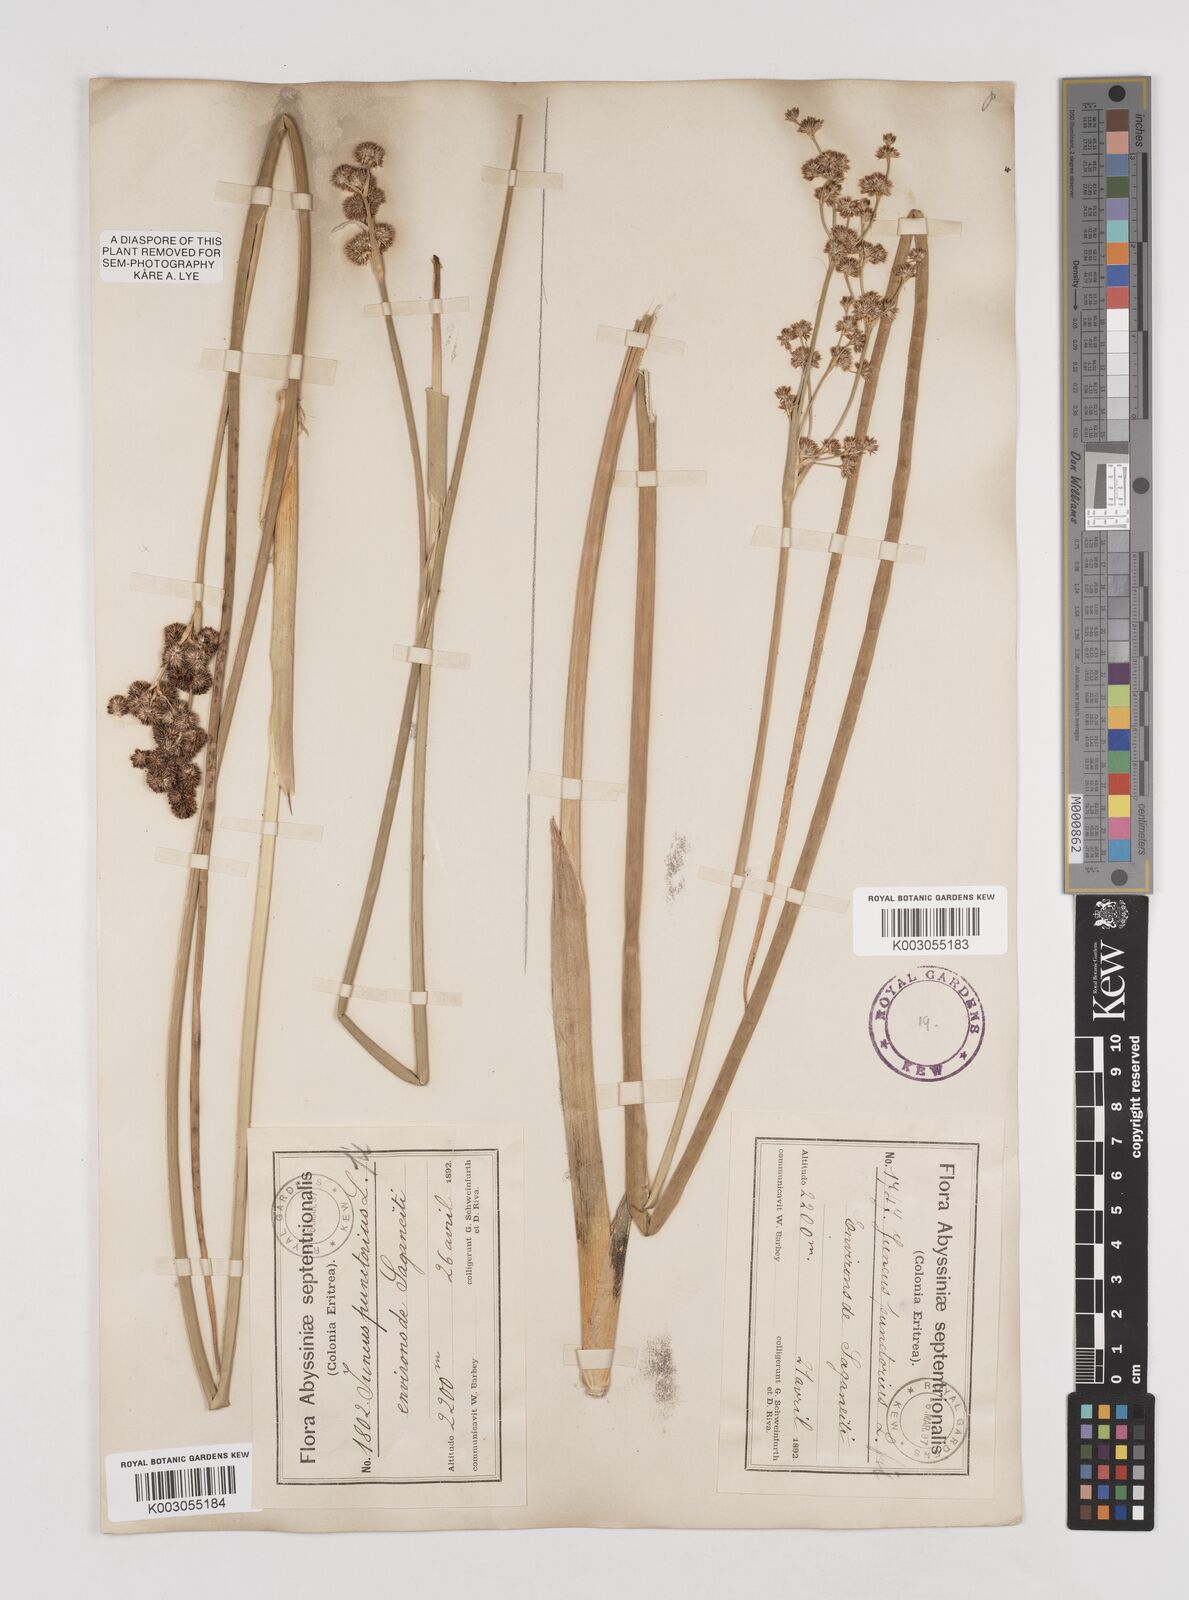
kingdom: Plantae
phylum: Tracheophyta
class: Liliopsida
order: Poales
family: Juncaceae
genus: Juncus
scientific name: Juncus punctorius
